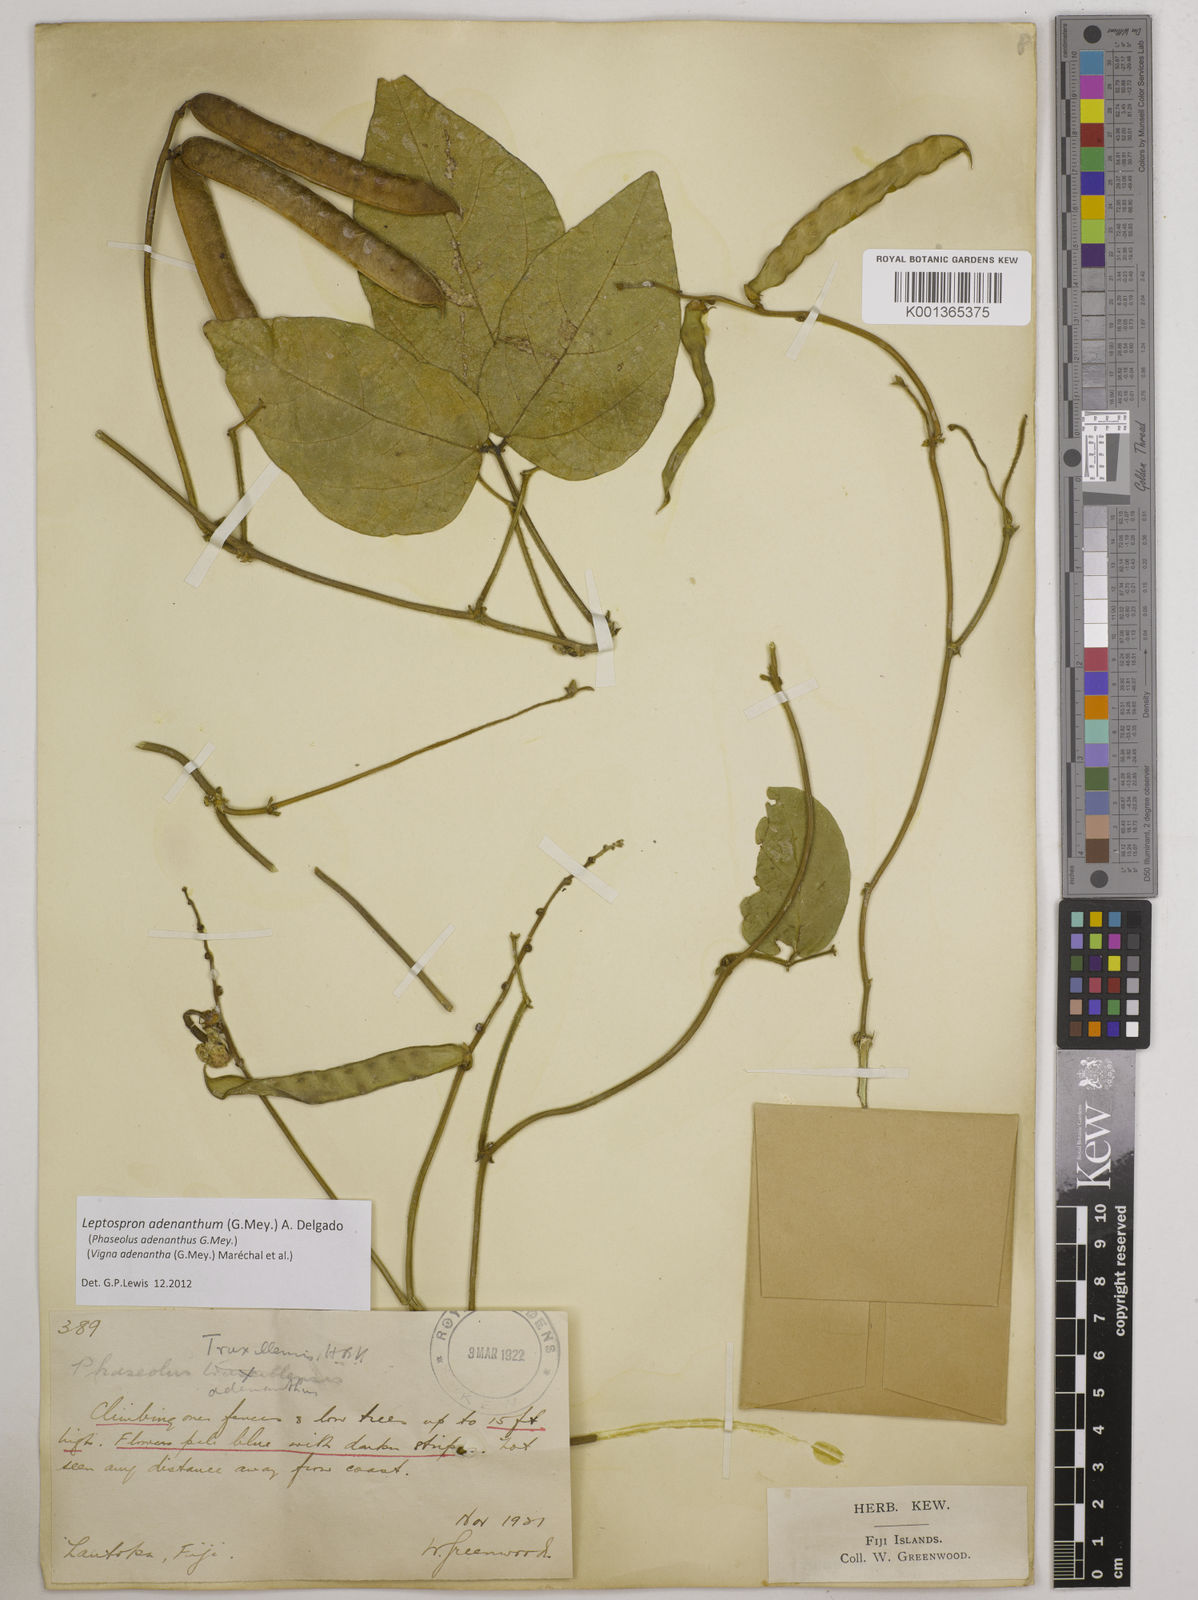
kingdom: Plantae
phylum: Tracheophyta
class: Magnoliopsida
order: Fabales
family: Fabaceae
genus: Leptospron
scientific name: Leptospron adenanthum
